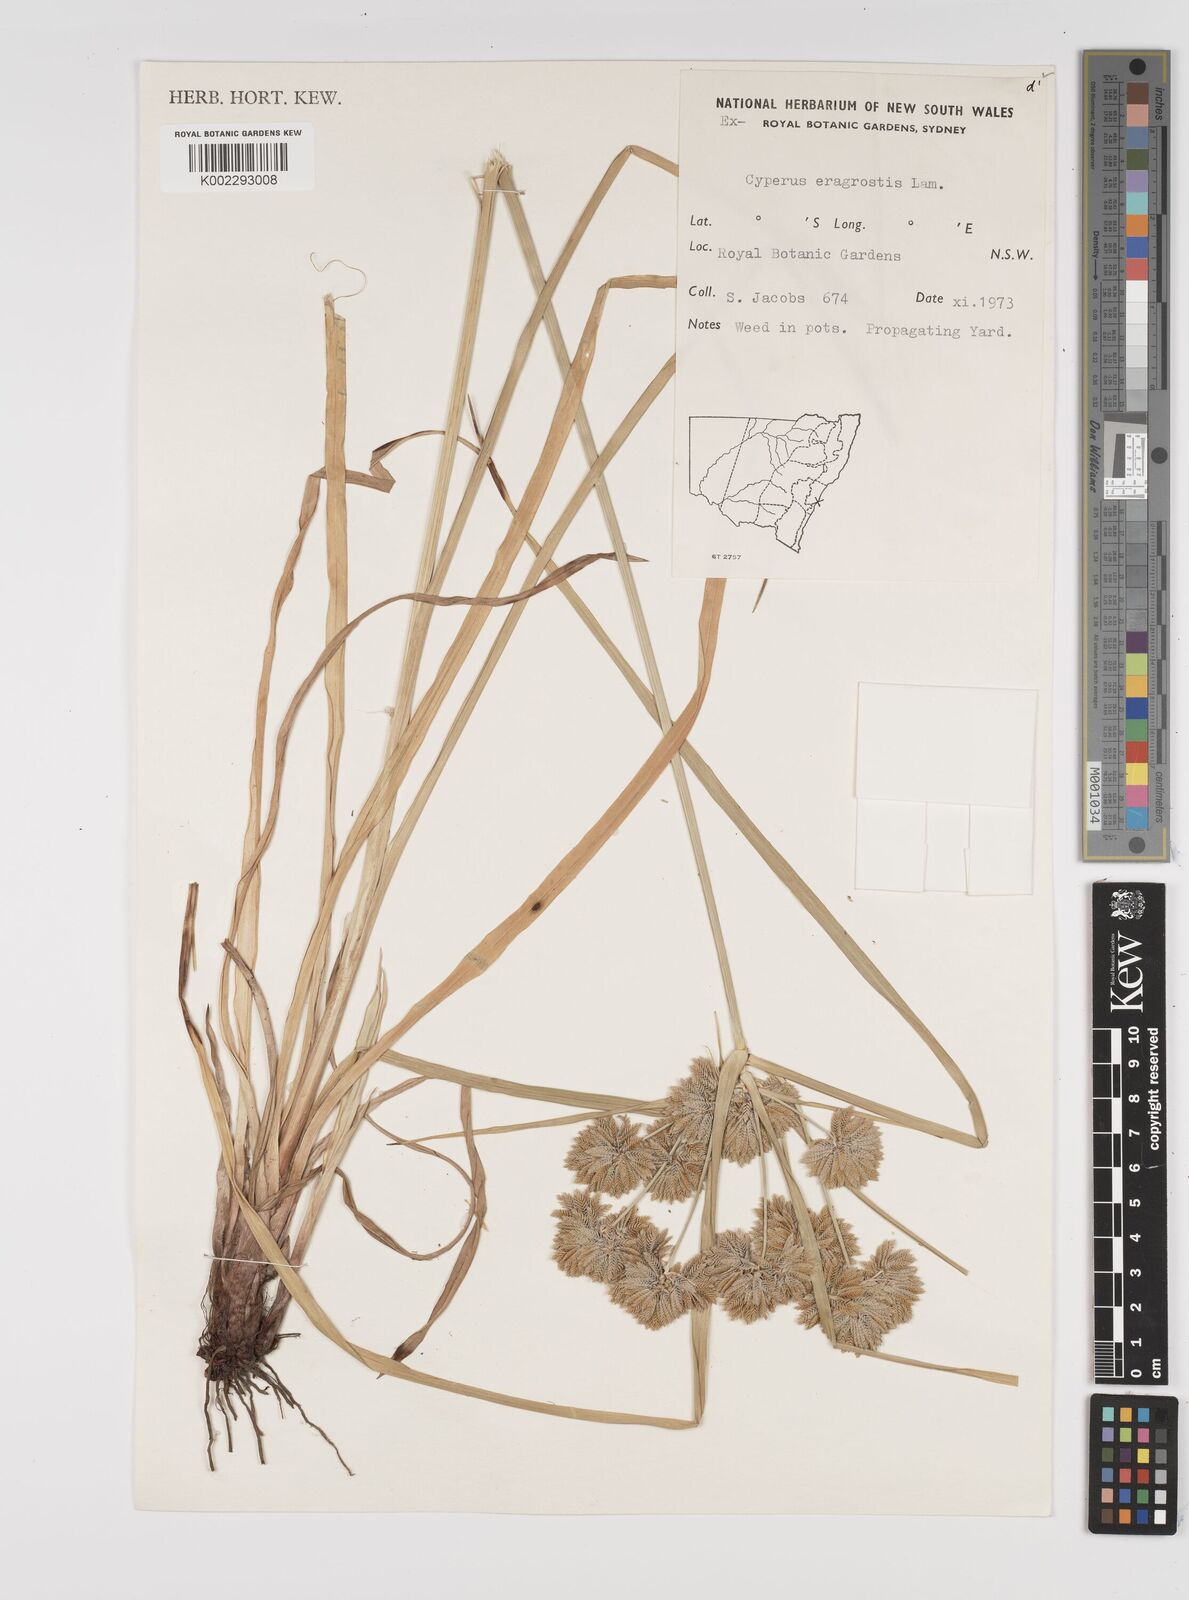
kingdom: Plantae
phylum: Tracheophyta
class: Liliopsida
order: Poales
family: Cyperaceae
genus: Cyperus
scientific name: Cyperus eragrostis
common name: Tall flatsedge
